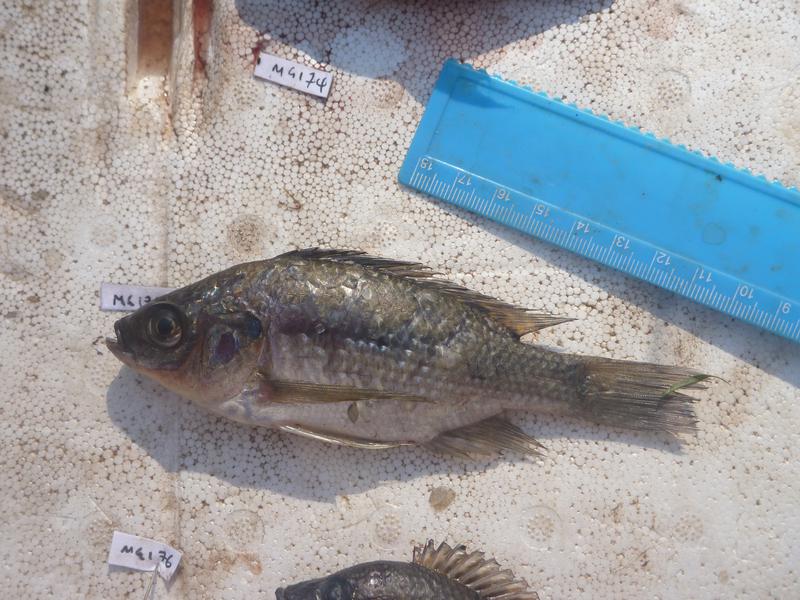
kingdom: Animalia
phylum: Chordata
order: Perciformes
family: Cichlidae
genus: Oreochromis
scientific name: Oreochromis esculentus
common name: Carp
